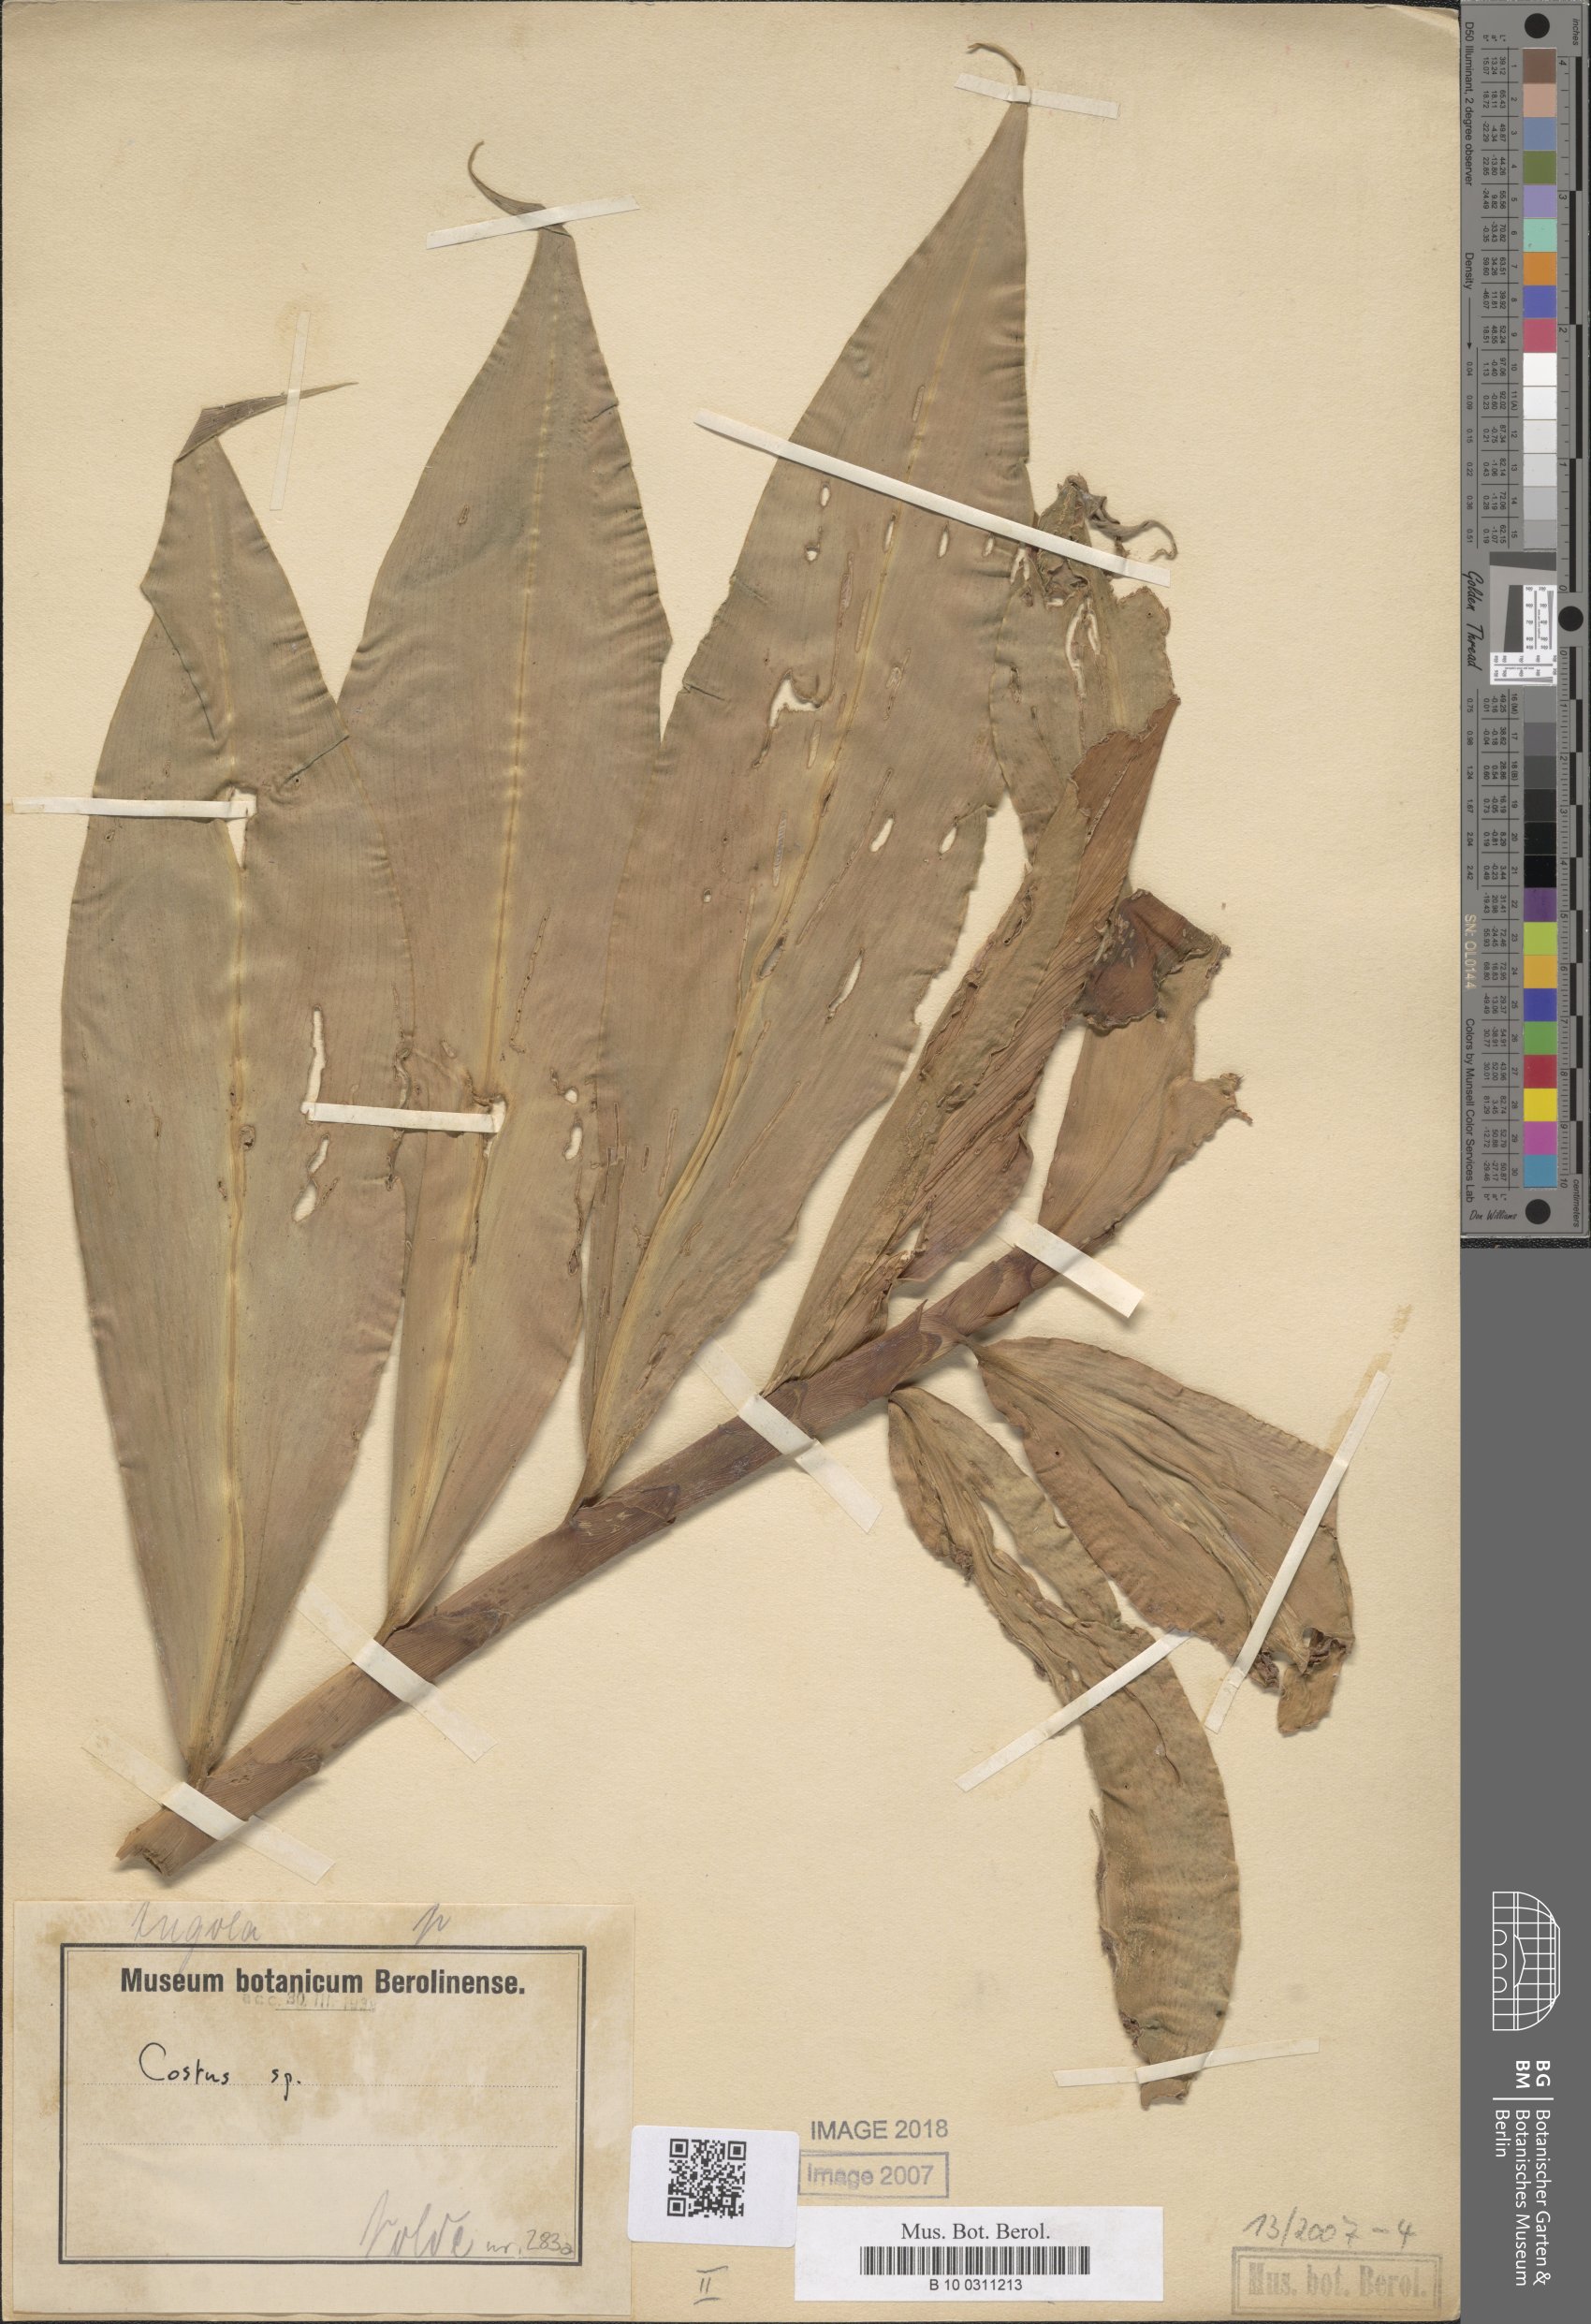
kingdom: Plantae
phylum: Tracheophyta
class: Liliopsida
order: Zingiberales
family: Costaceae
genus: Costus
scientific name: Costus dubius
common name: Costus
